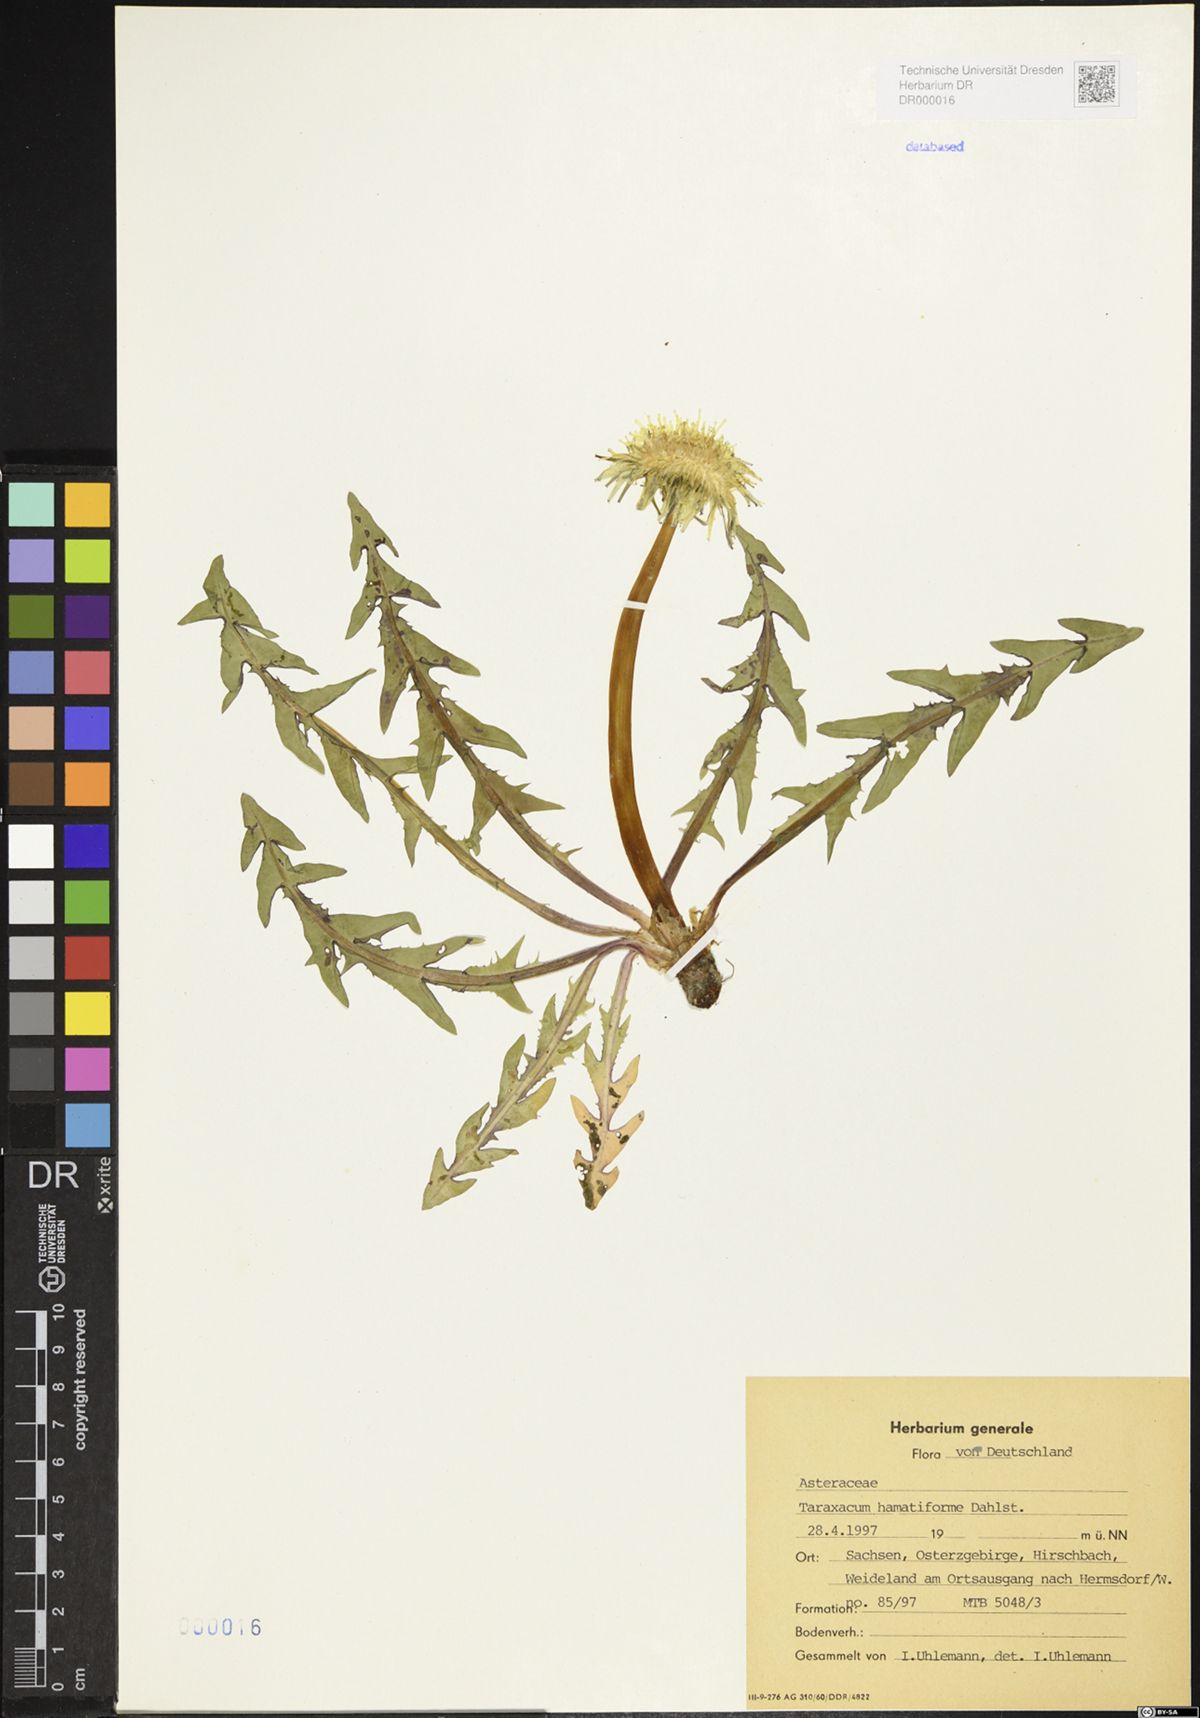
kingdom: Plantae
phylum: Tracheophyta
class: Magnoliopsida
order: Asterales
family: Asteraceae
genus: Taraxacum
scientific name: Taraxacum hamatiforme
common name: Asymmetrical hook-lobed dandelion
